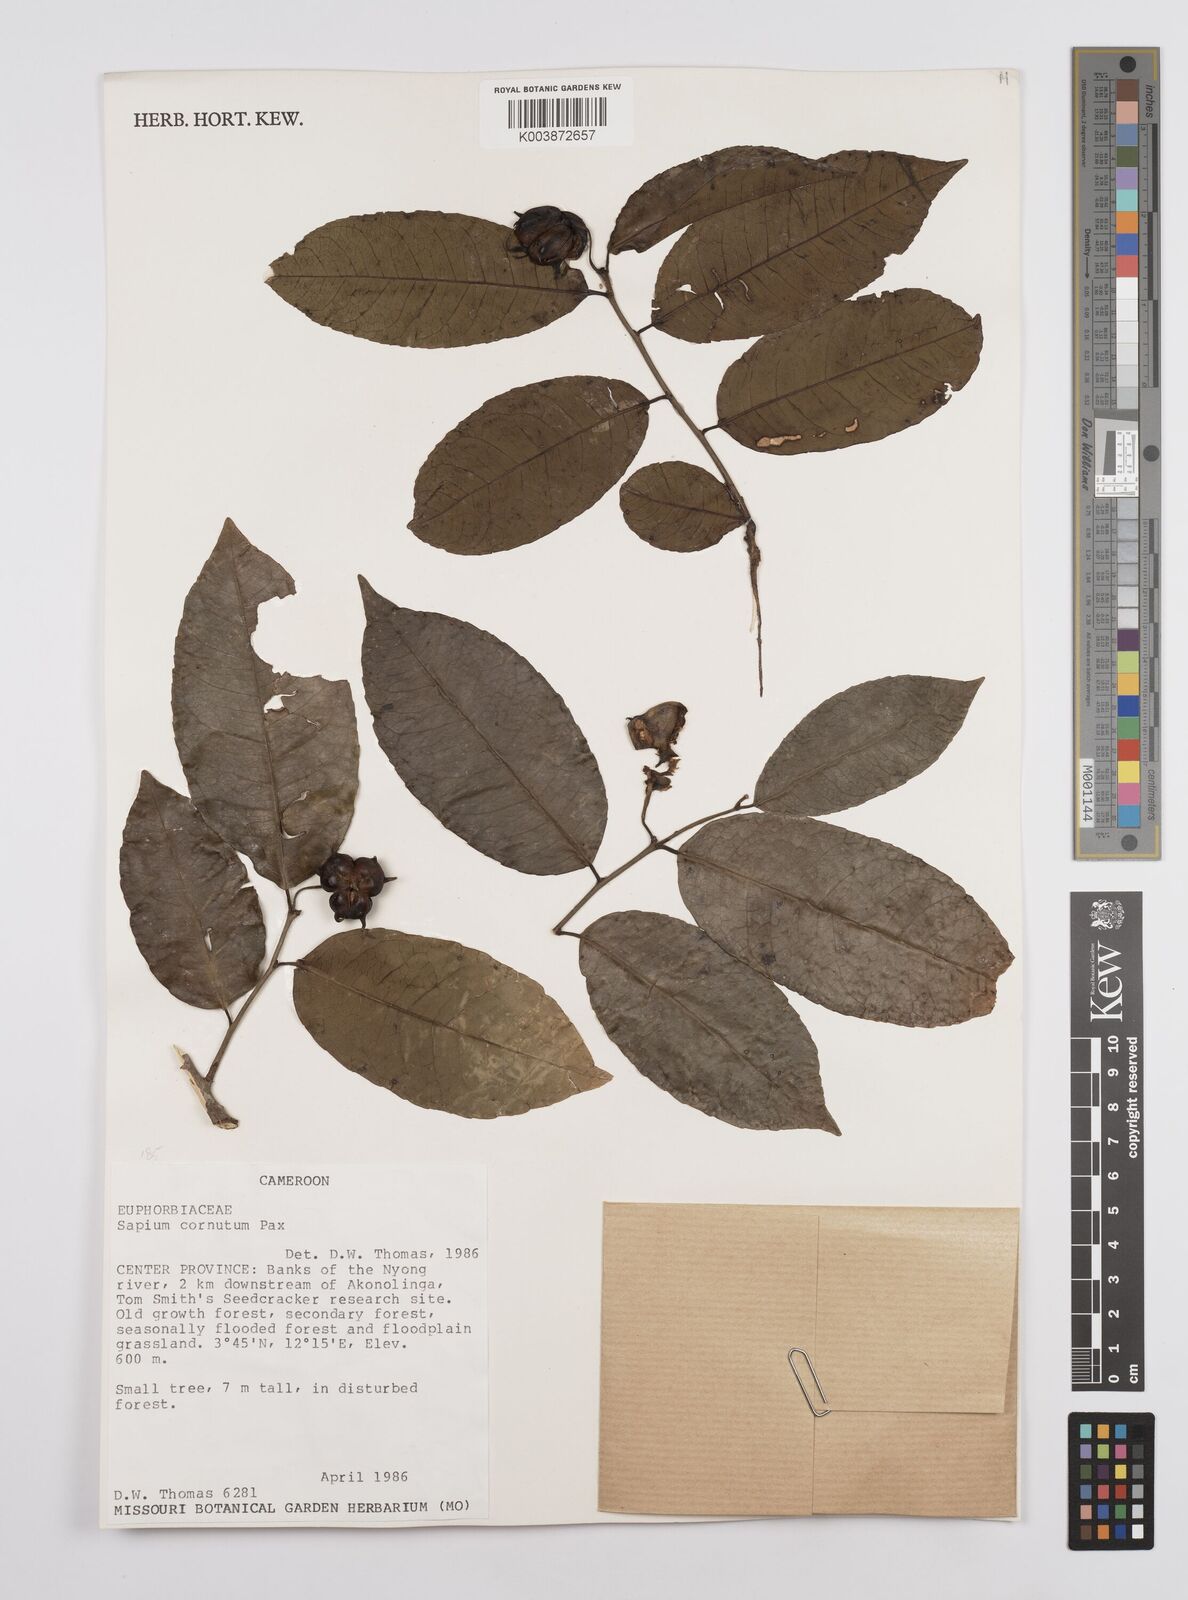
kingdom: Plantae
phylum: Tracheophyta
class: Magnoliopsida
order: Malpighiales
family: Euphorbiaceae
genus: Sclerocroton
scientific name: Sclerocroton cornutus
